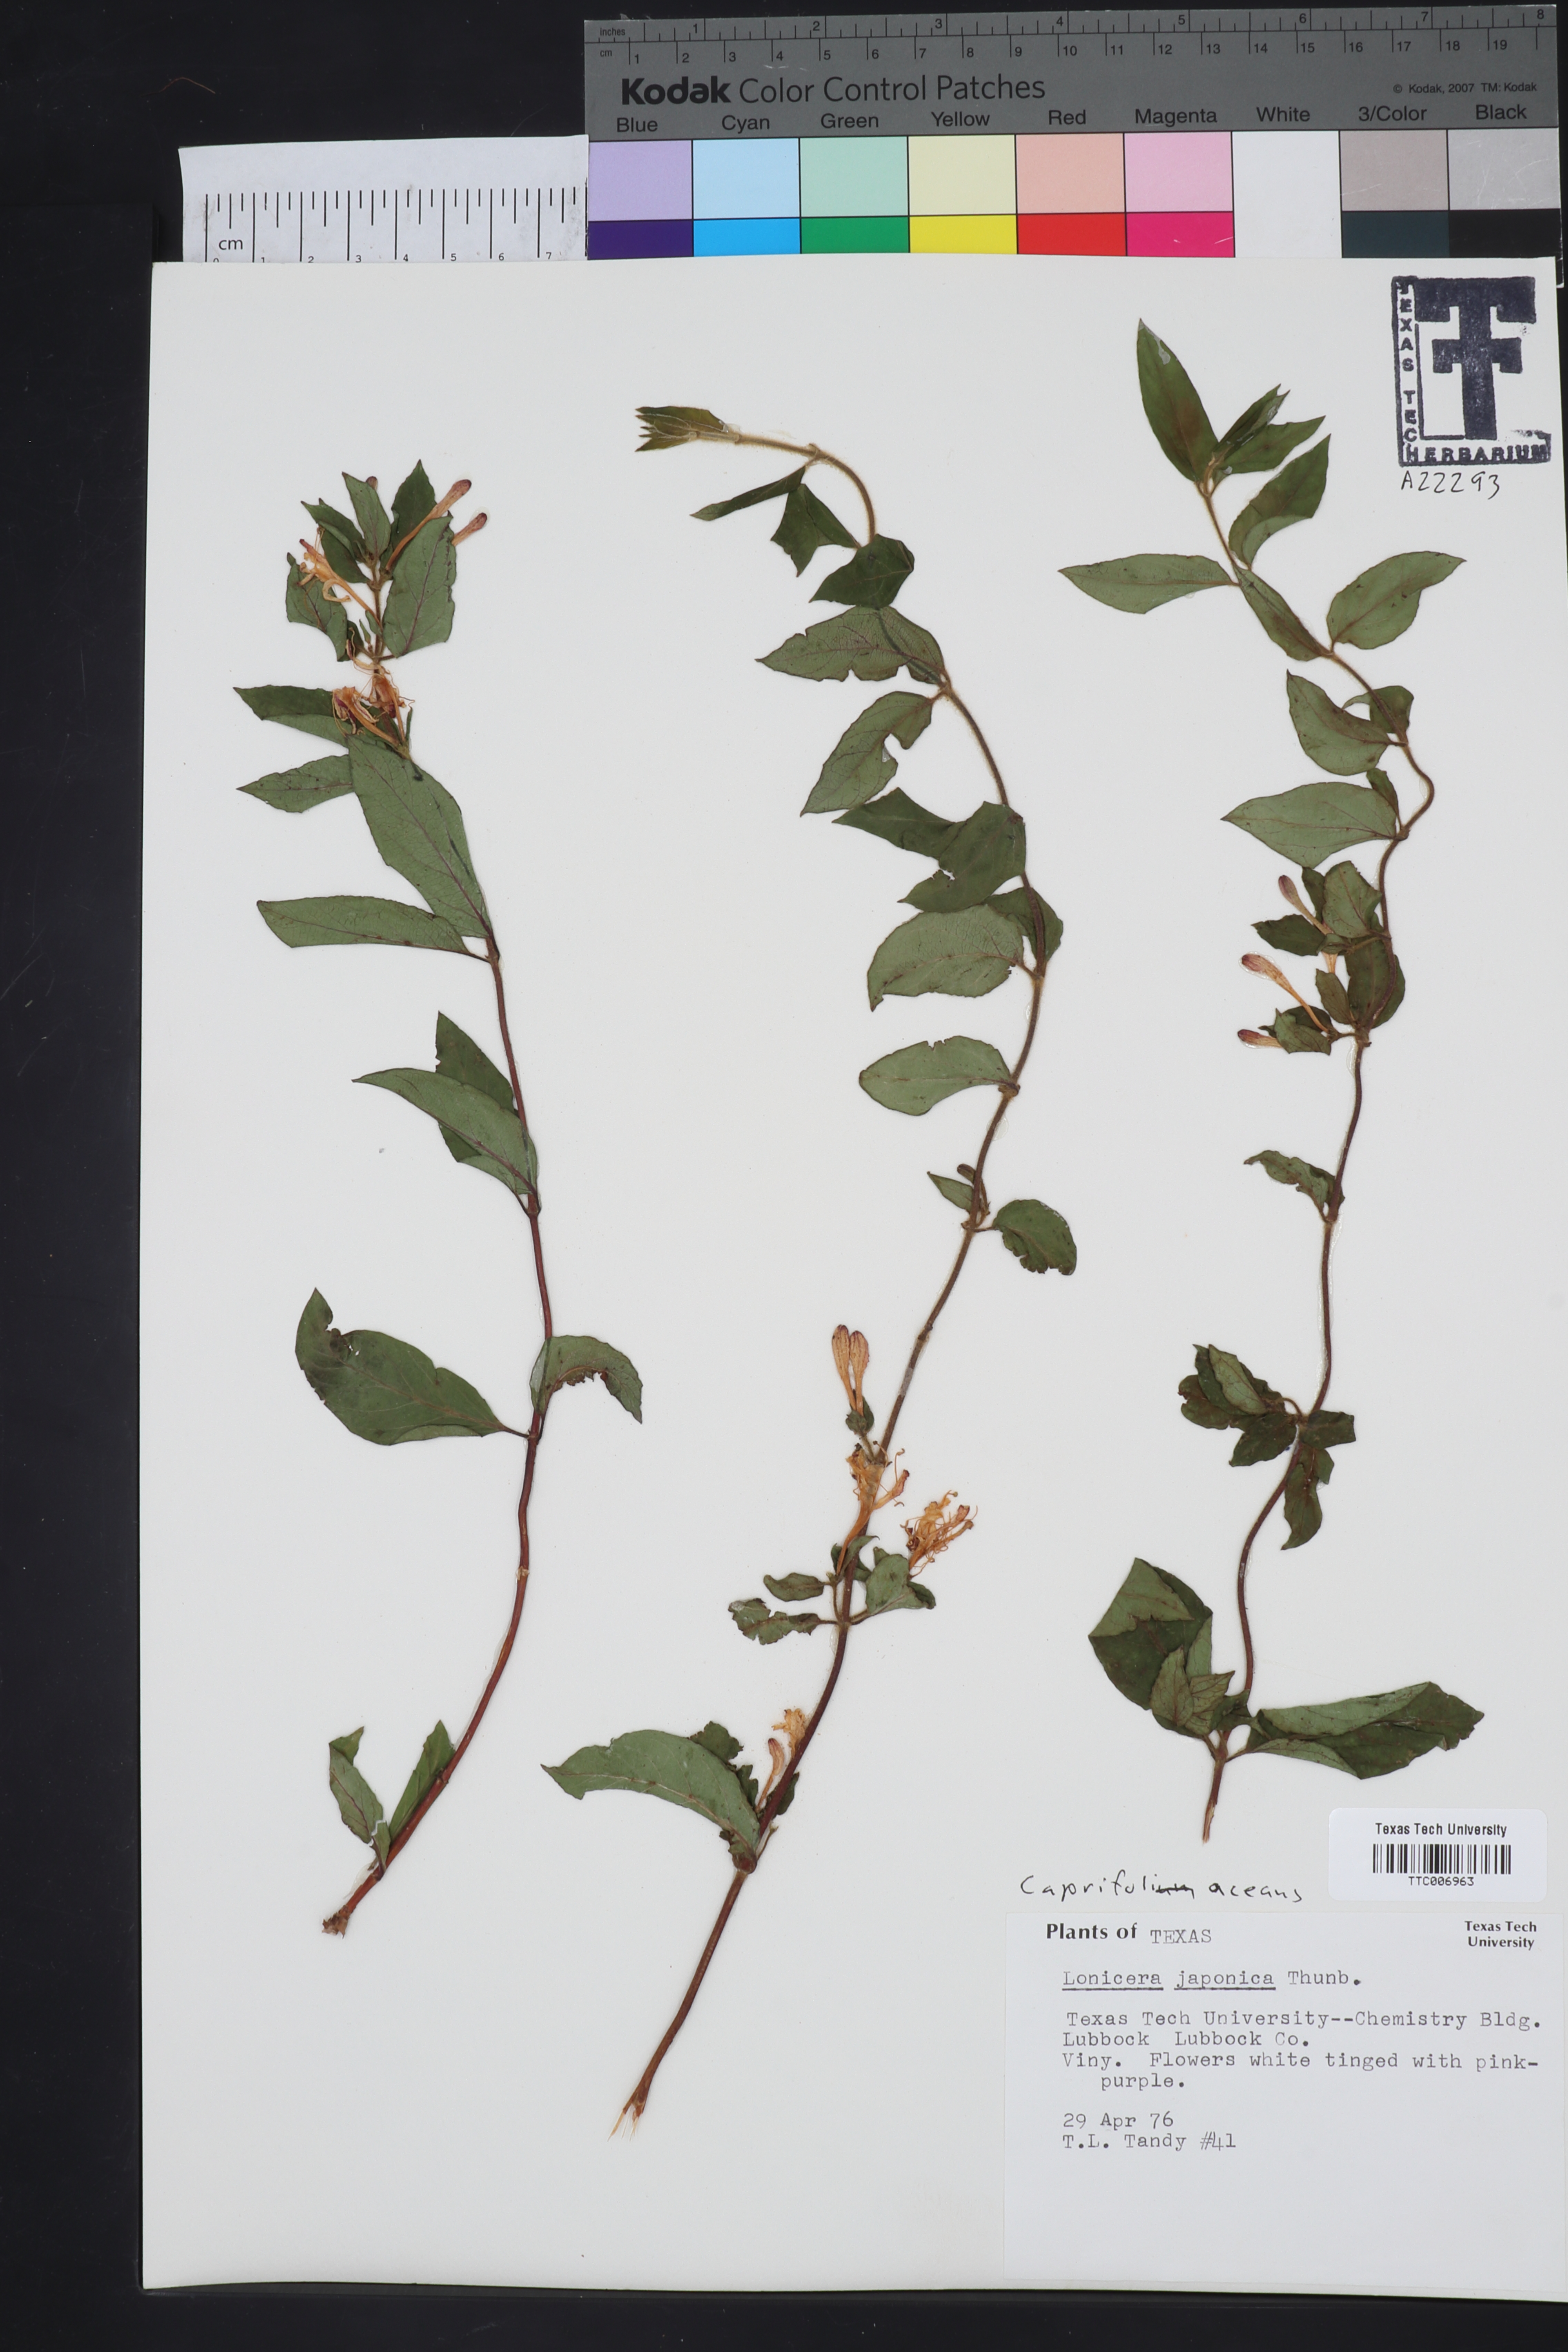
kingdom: Plantae
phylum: Tracheophyta
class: Magnoliopsida
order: Dipsacales
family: Caprifoliaceae
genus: Lonicera
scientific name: Lonicera japonica
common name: Japanese honeysuckle
